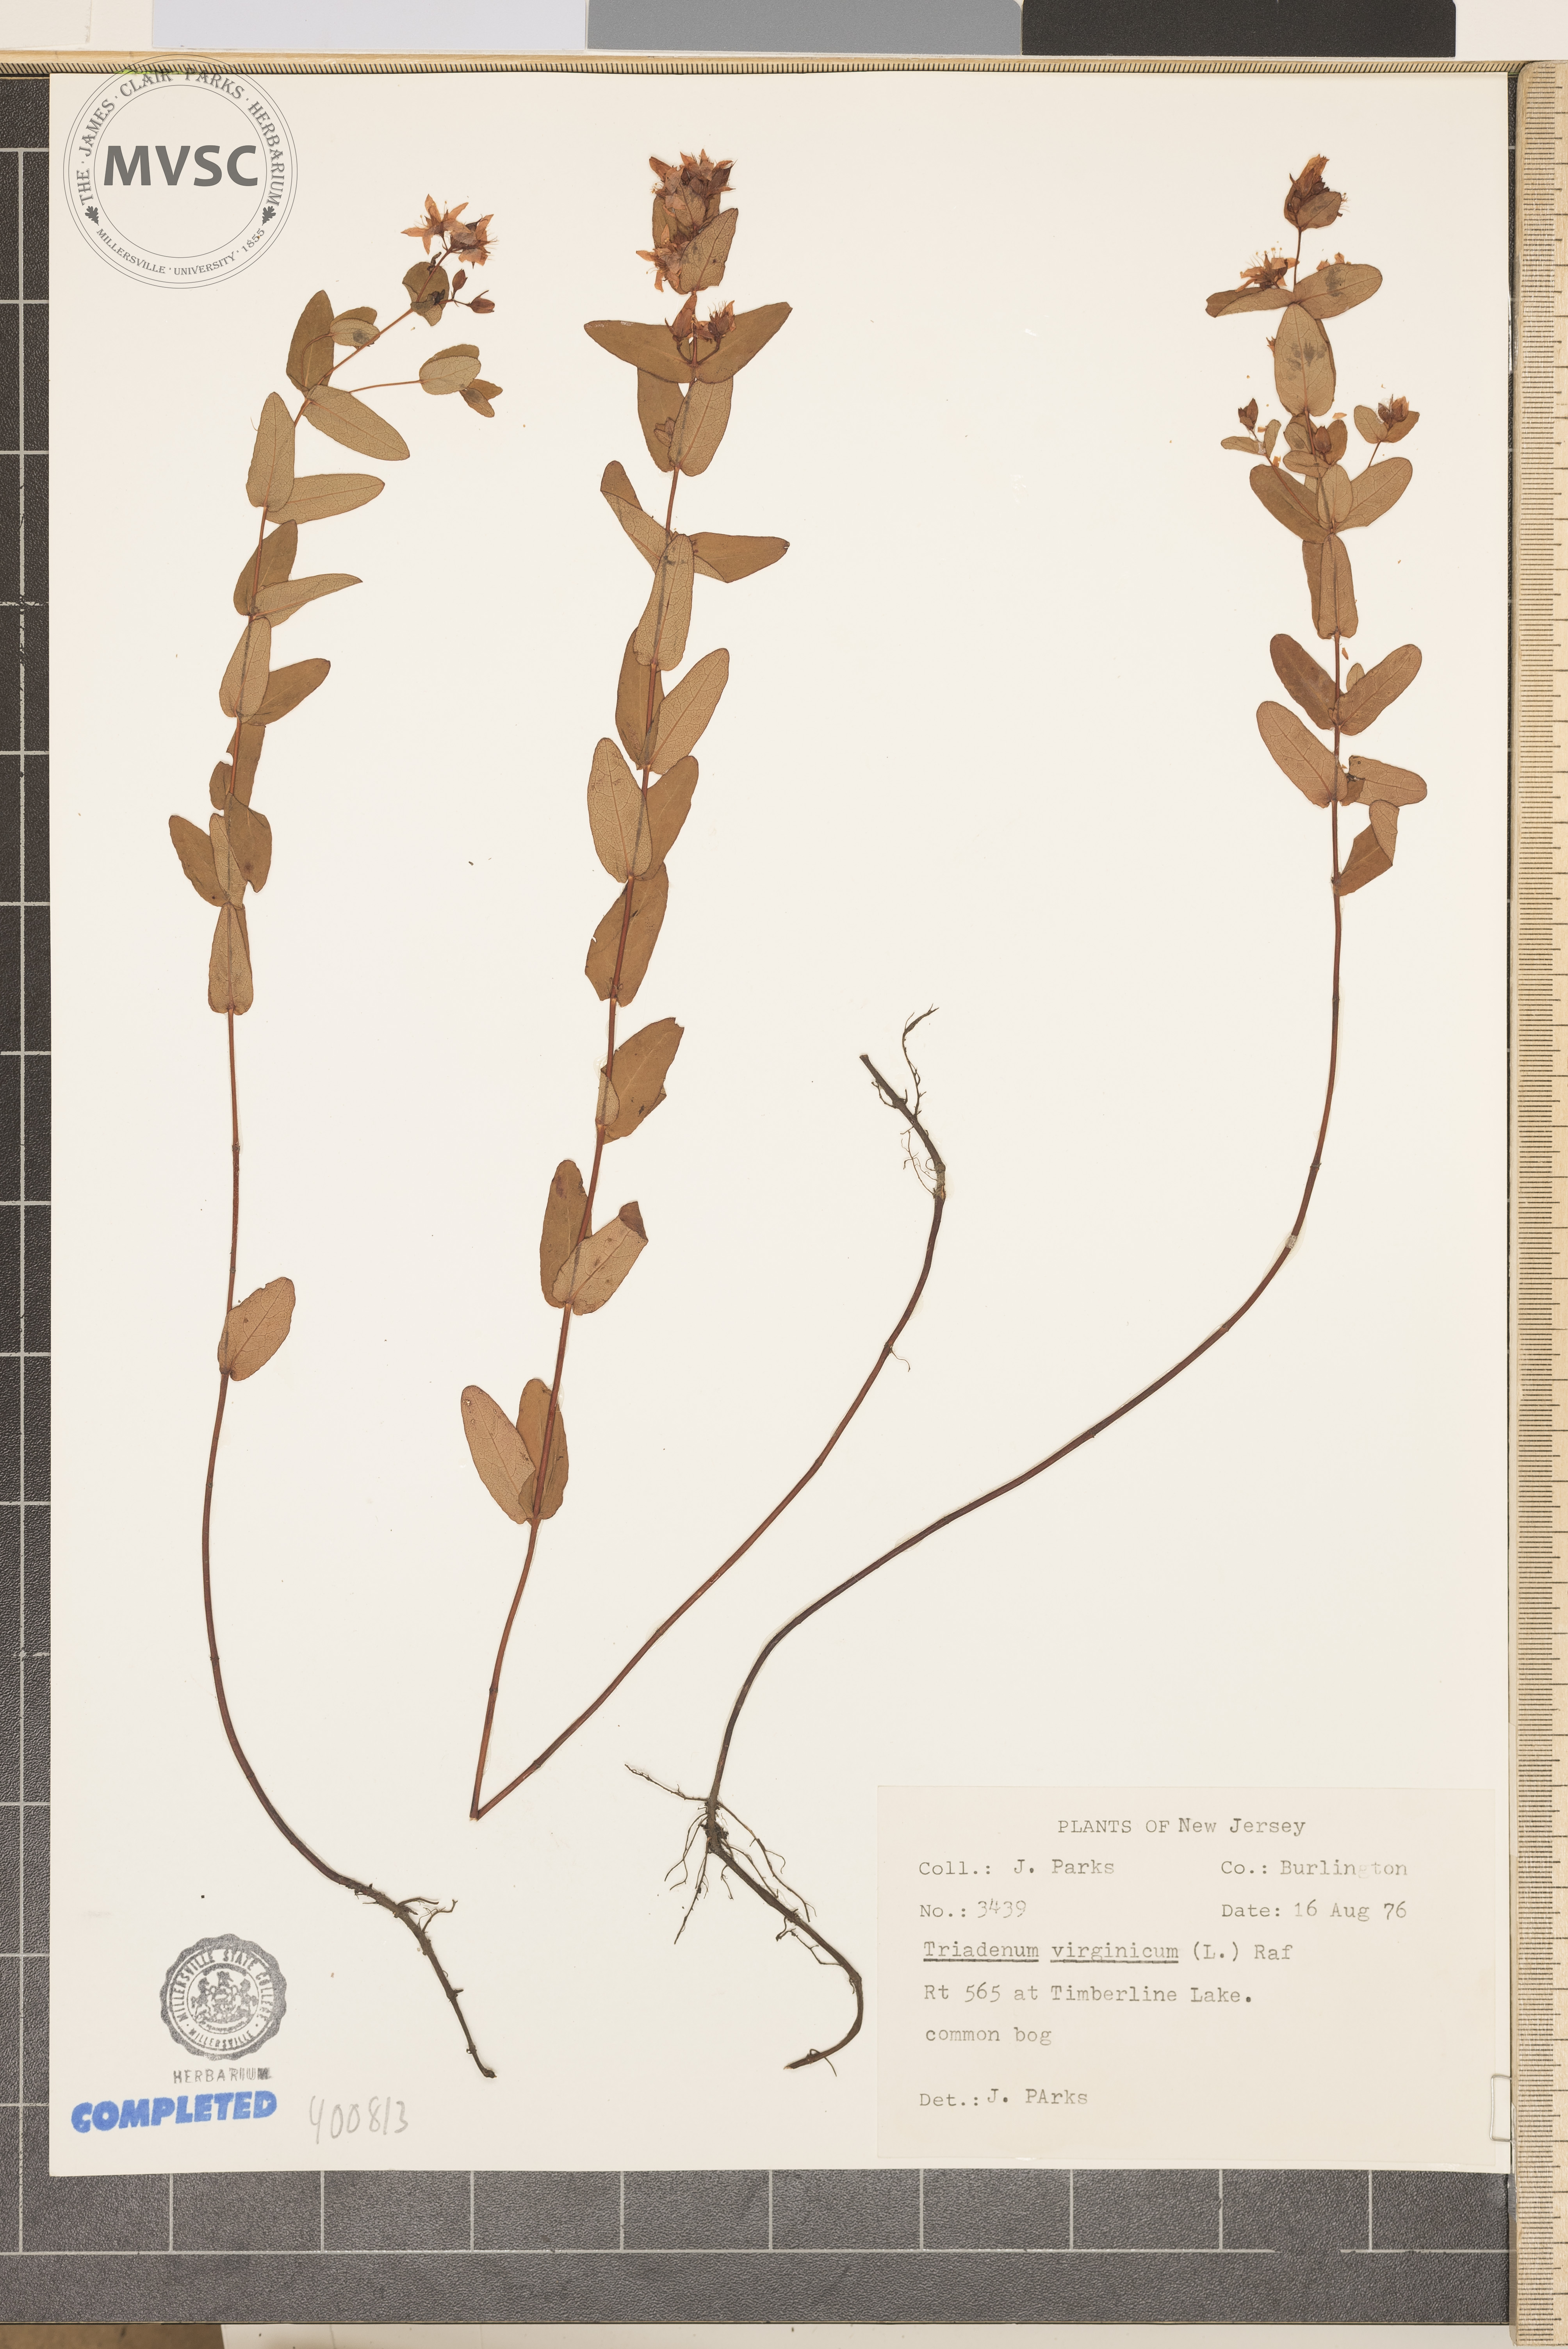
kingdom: Plantae
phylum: Tracheophyta
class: Magnoliopsida
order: Malpighiales
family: Hypericaceae
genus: Triadenum
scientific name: Triadenum virginicum
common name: Marsh St. John's-wort
